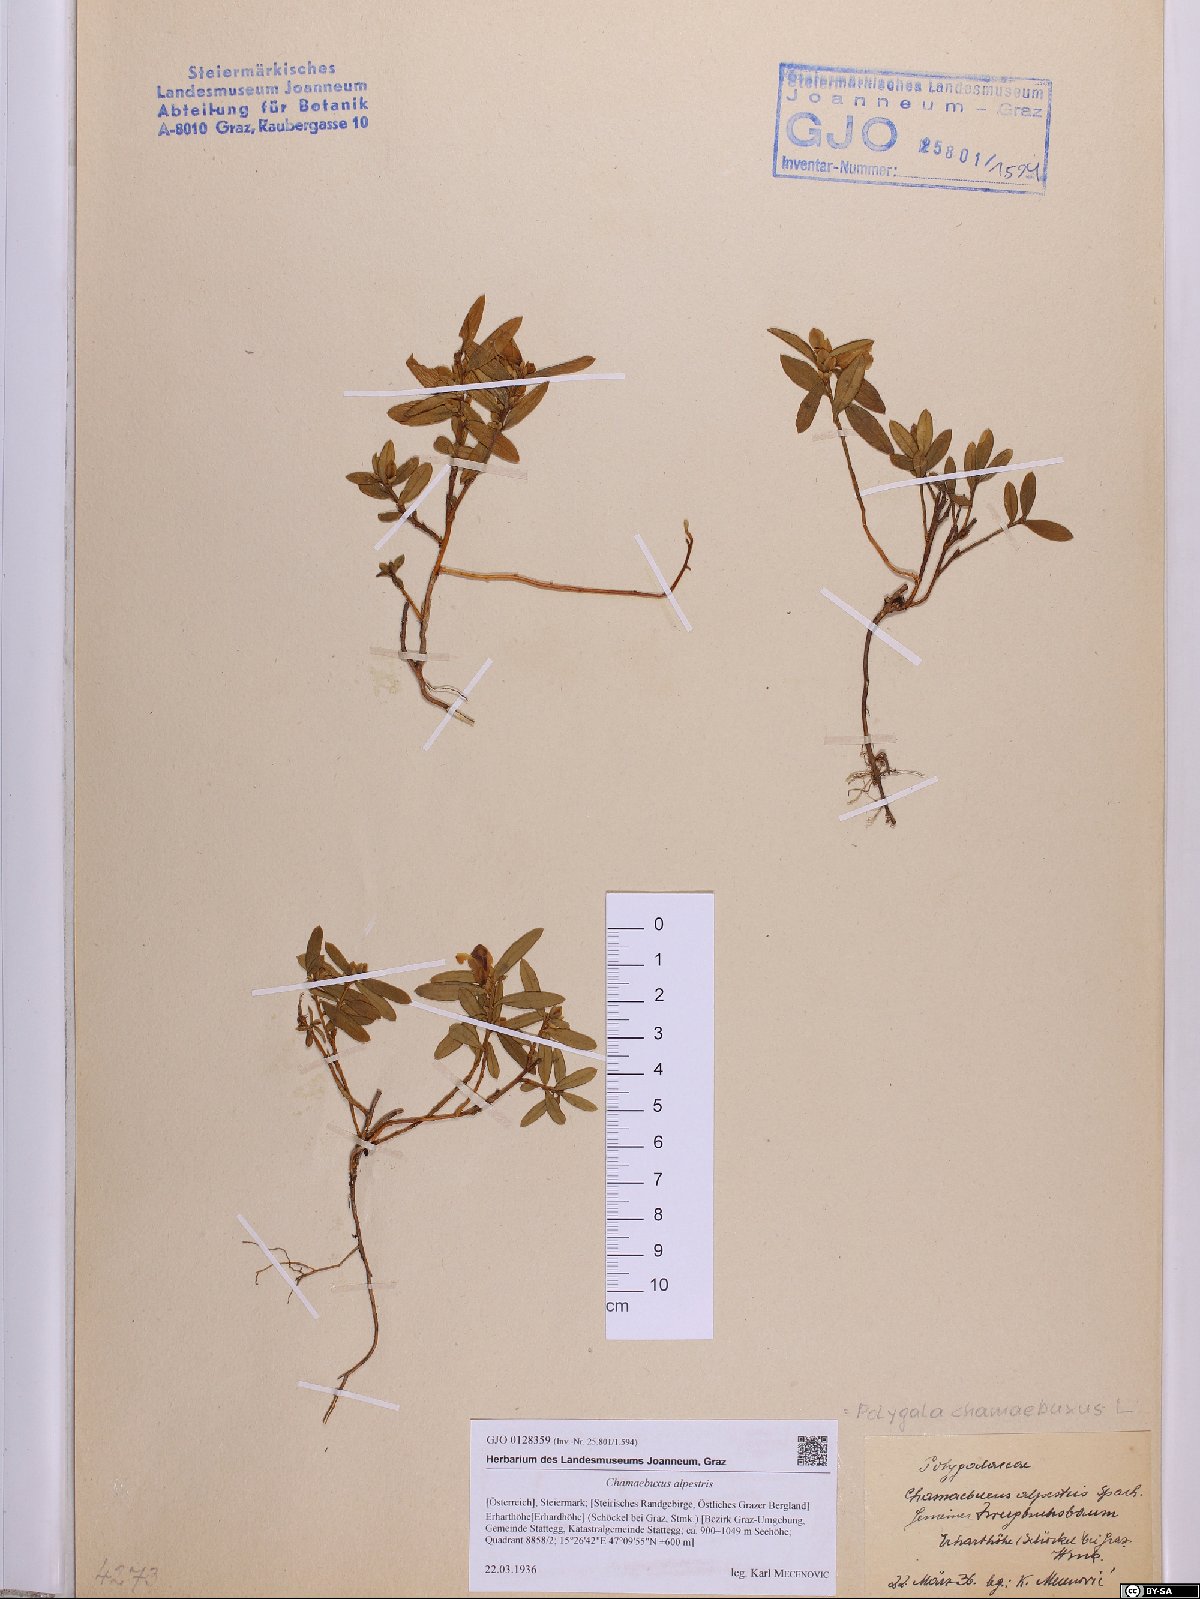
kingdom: Plantae
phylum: Tracheophyta
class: Magnoliopsida
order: Fabales
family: Polygalaceae
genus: Polygaloides
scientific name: Polygaloides chamaebuxus
